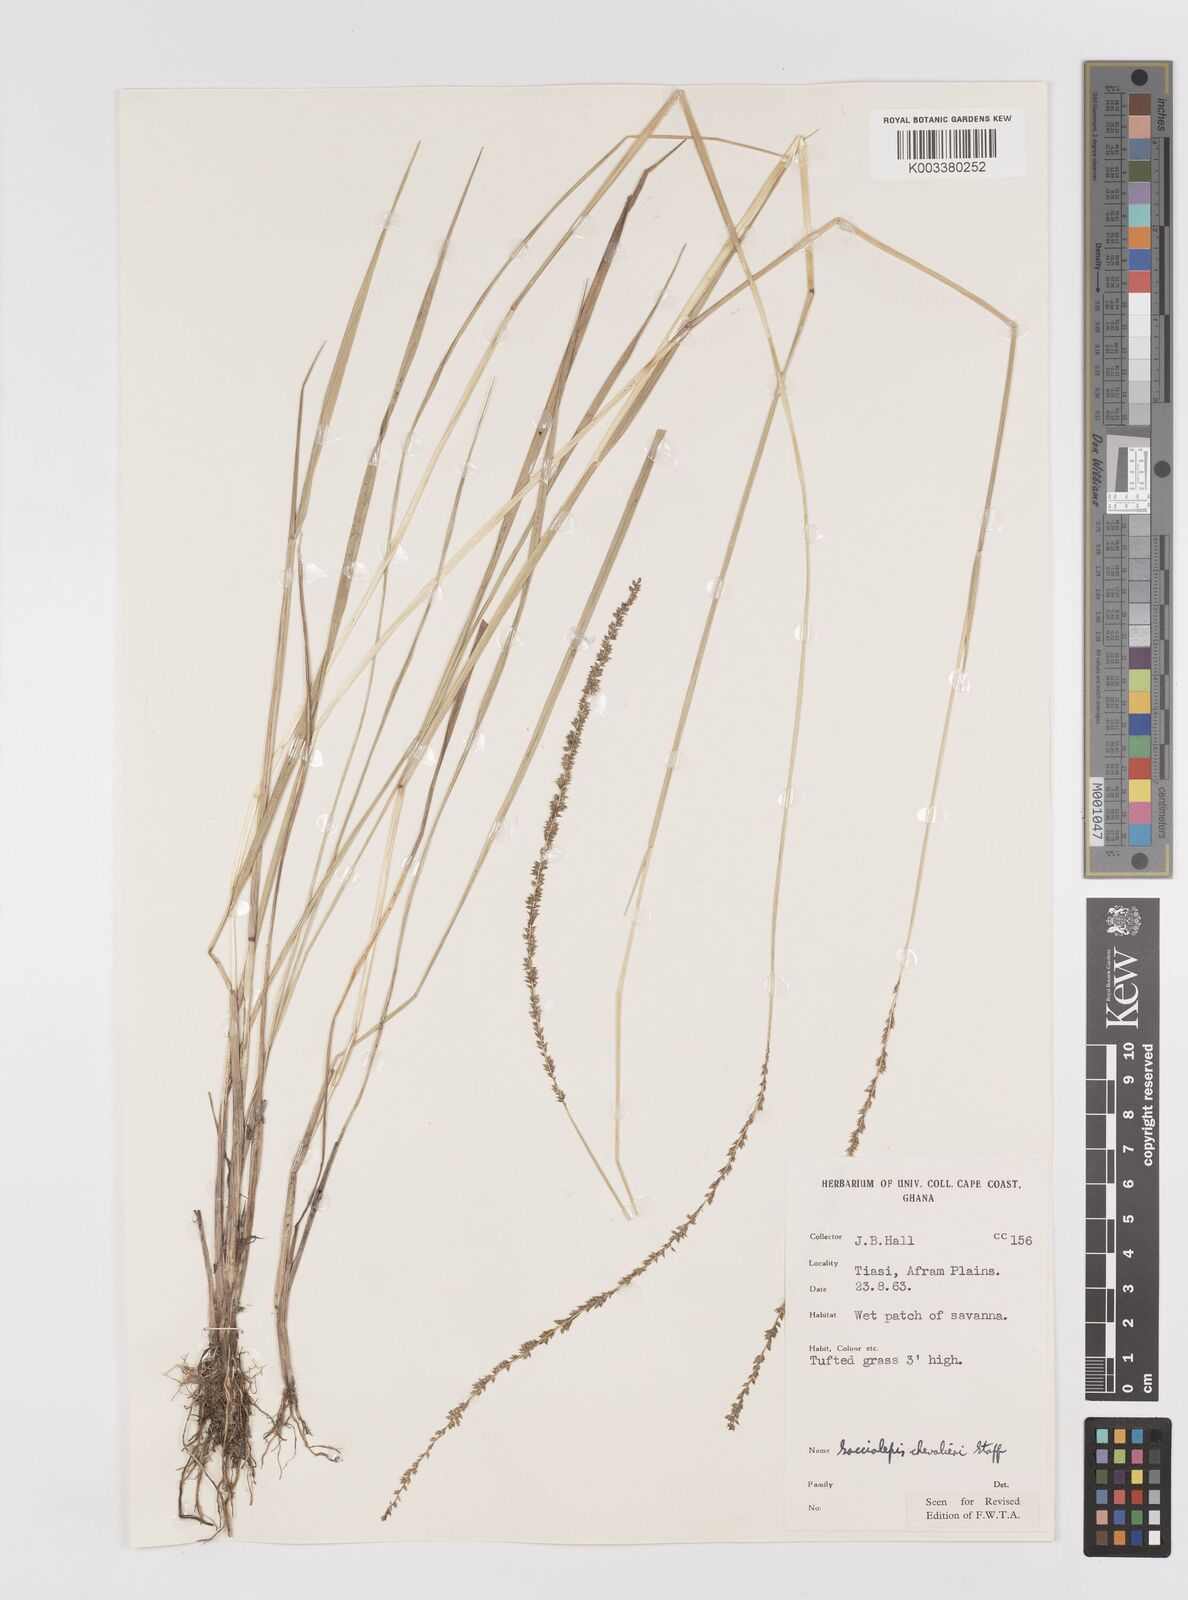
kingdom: Plantae
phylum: Tracheophyta
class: Liliopsida
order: Poales
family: Poaceae
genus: Sacciolepis
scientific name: Sacciolepis chevalieri
